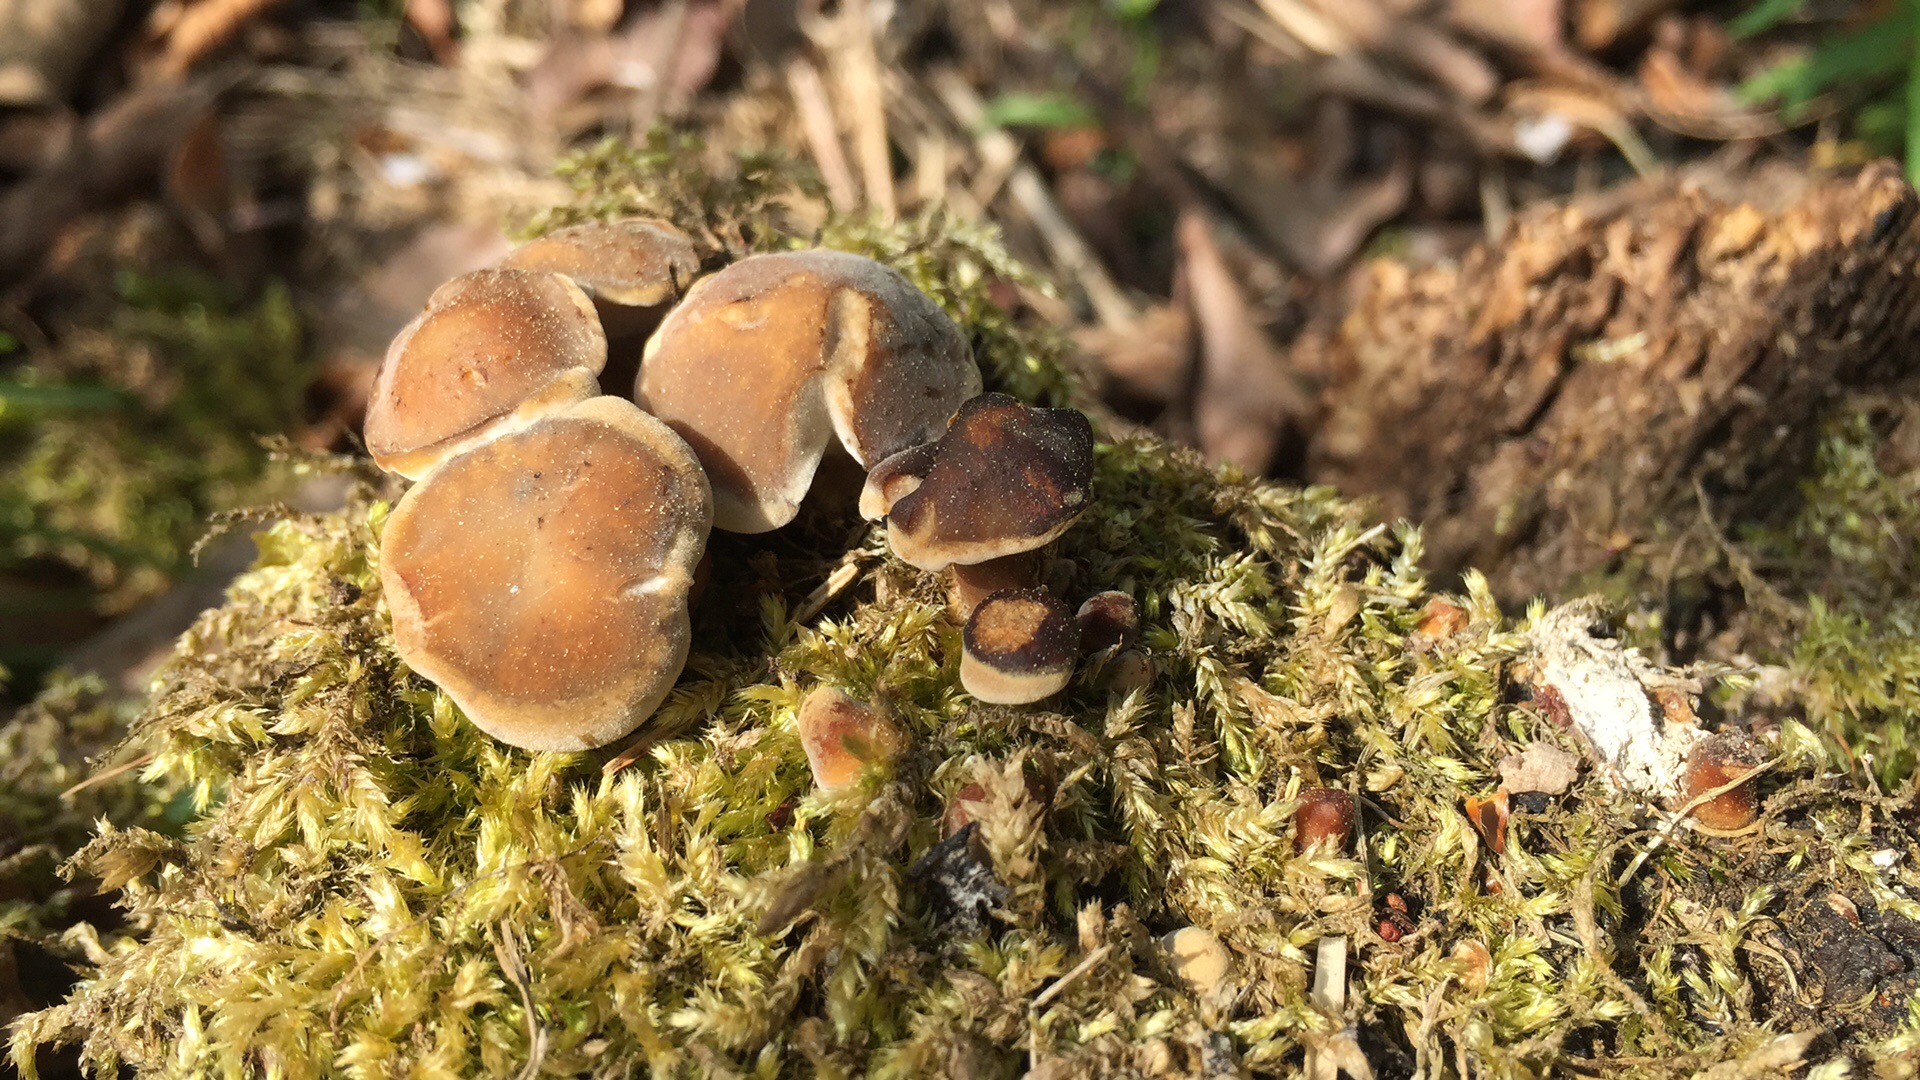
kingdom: Fungi
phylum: Basidiomycota
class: Agaricomycetes
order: Polyporales
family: Polyporaceae
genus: Lentinus
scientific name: Lentinus substrictus
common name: forårs-stilkporesvamp
